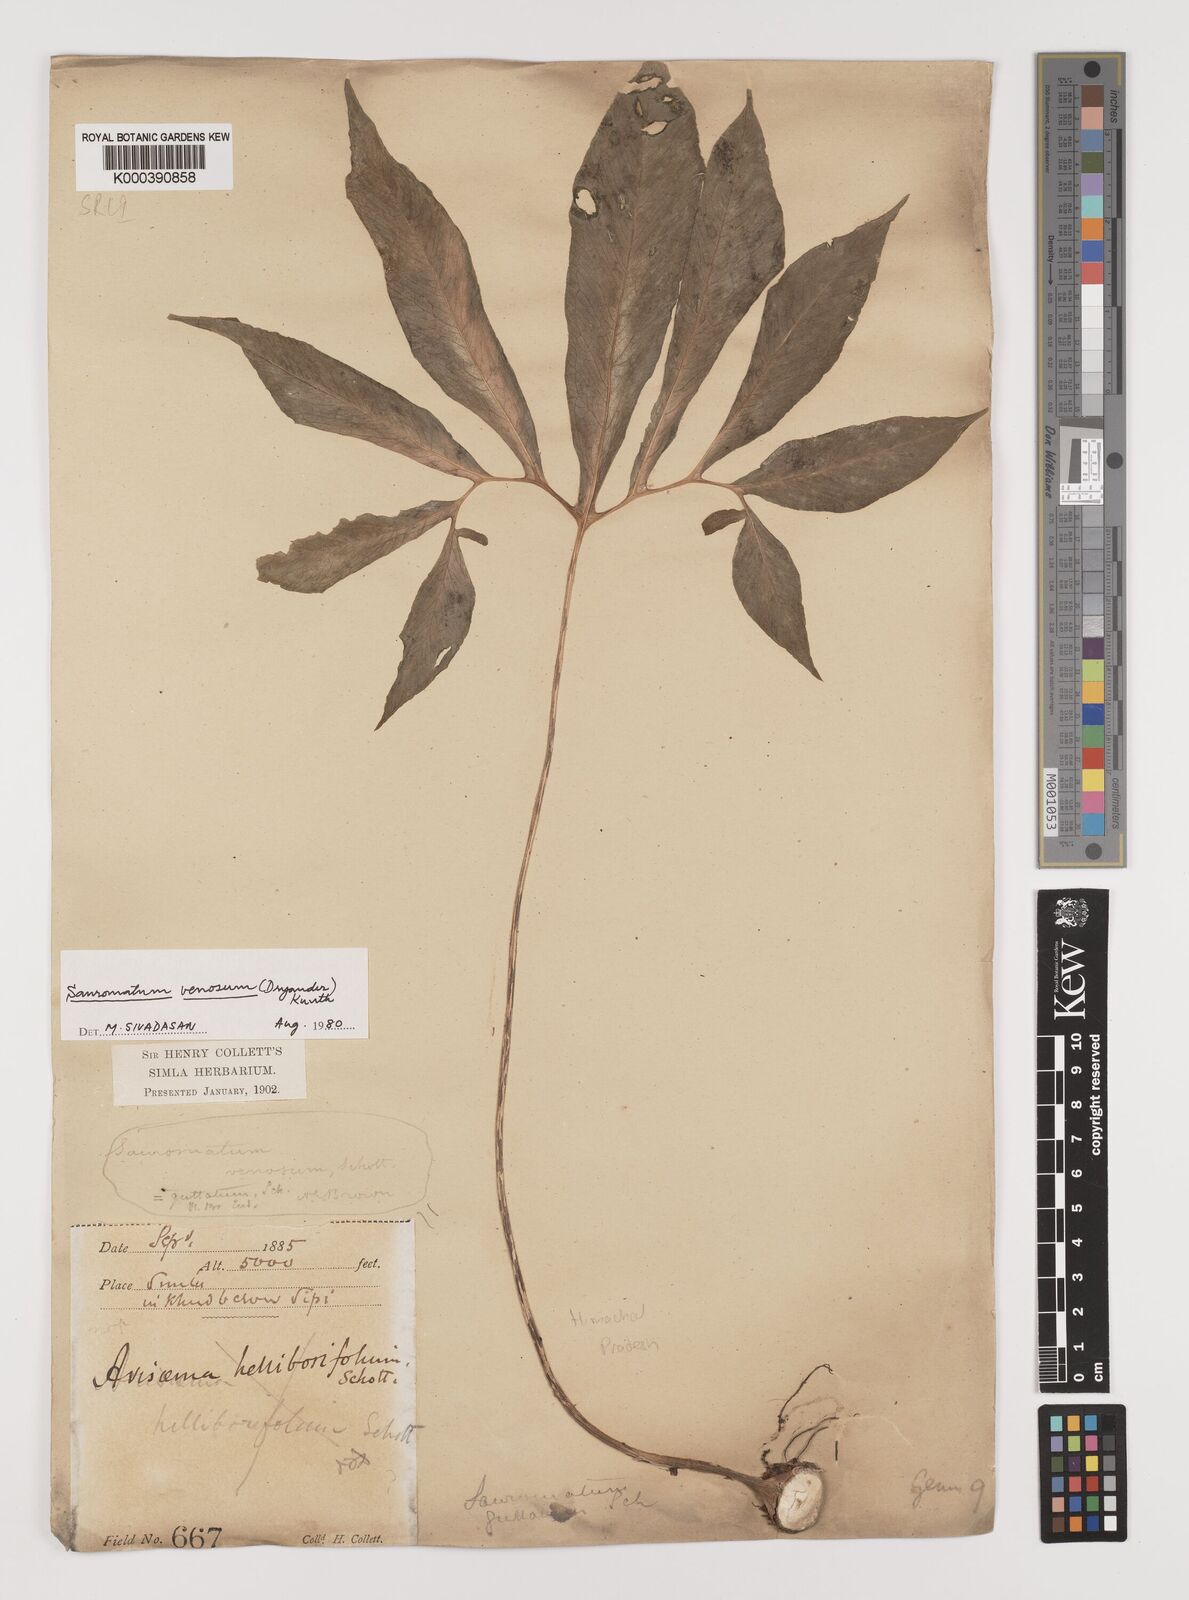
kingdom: Plantae
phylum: Tracheophyta
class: Liliopsida
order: Alismatales
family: Araceae
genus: Sauromatum
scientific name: Sauromatum venosum
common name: Voodoo lily
